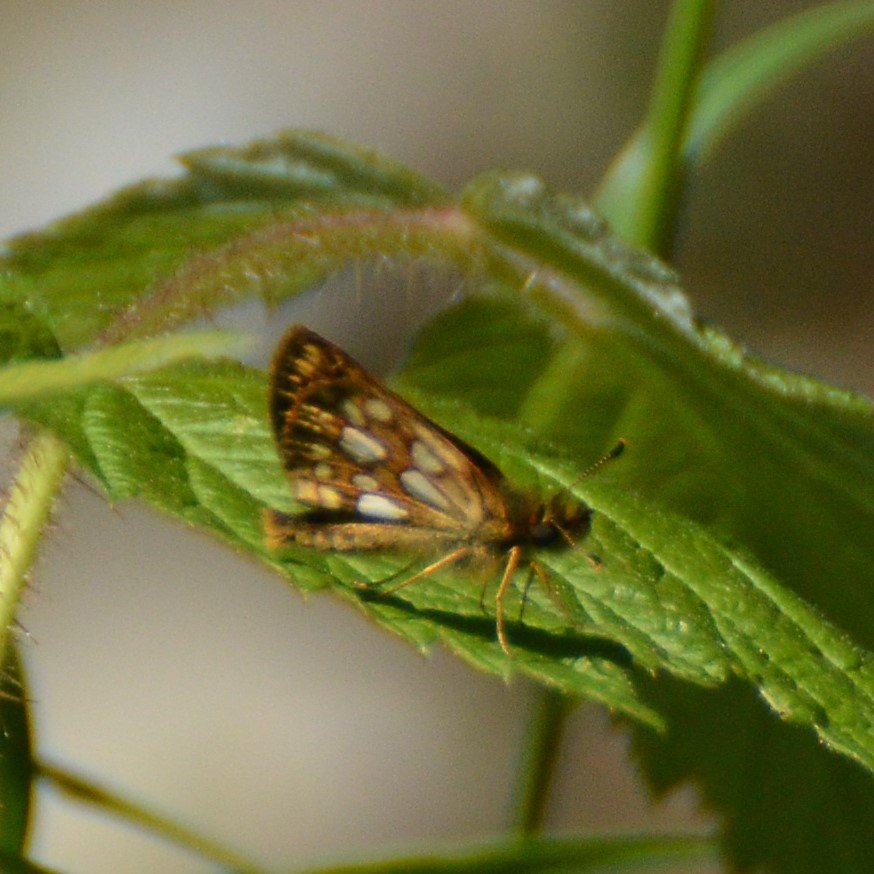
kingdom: Animalia
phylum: Arthropoda
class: Insecta
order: Lepidoptera
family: Hesperiidae
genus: Carterocephalus
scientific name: Carterocephalus palaemon
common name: Chequered Skipper
